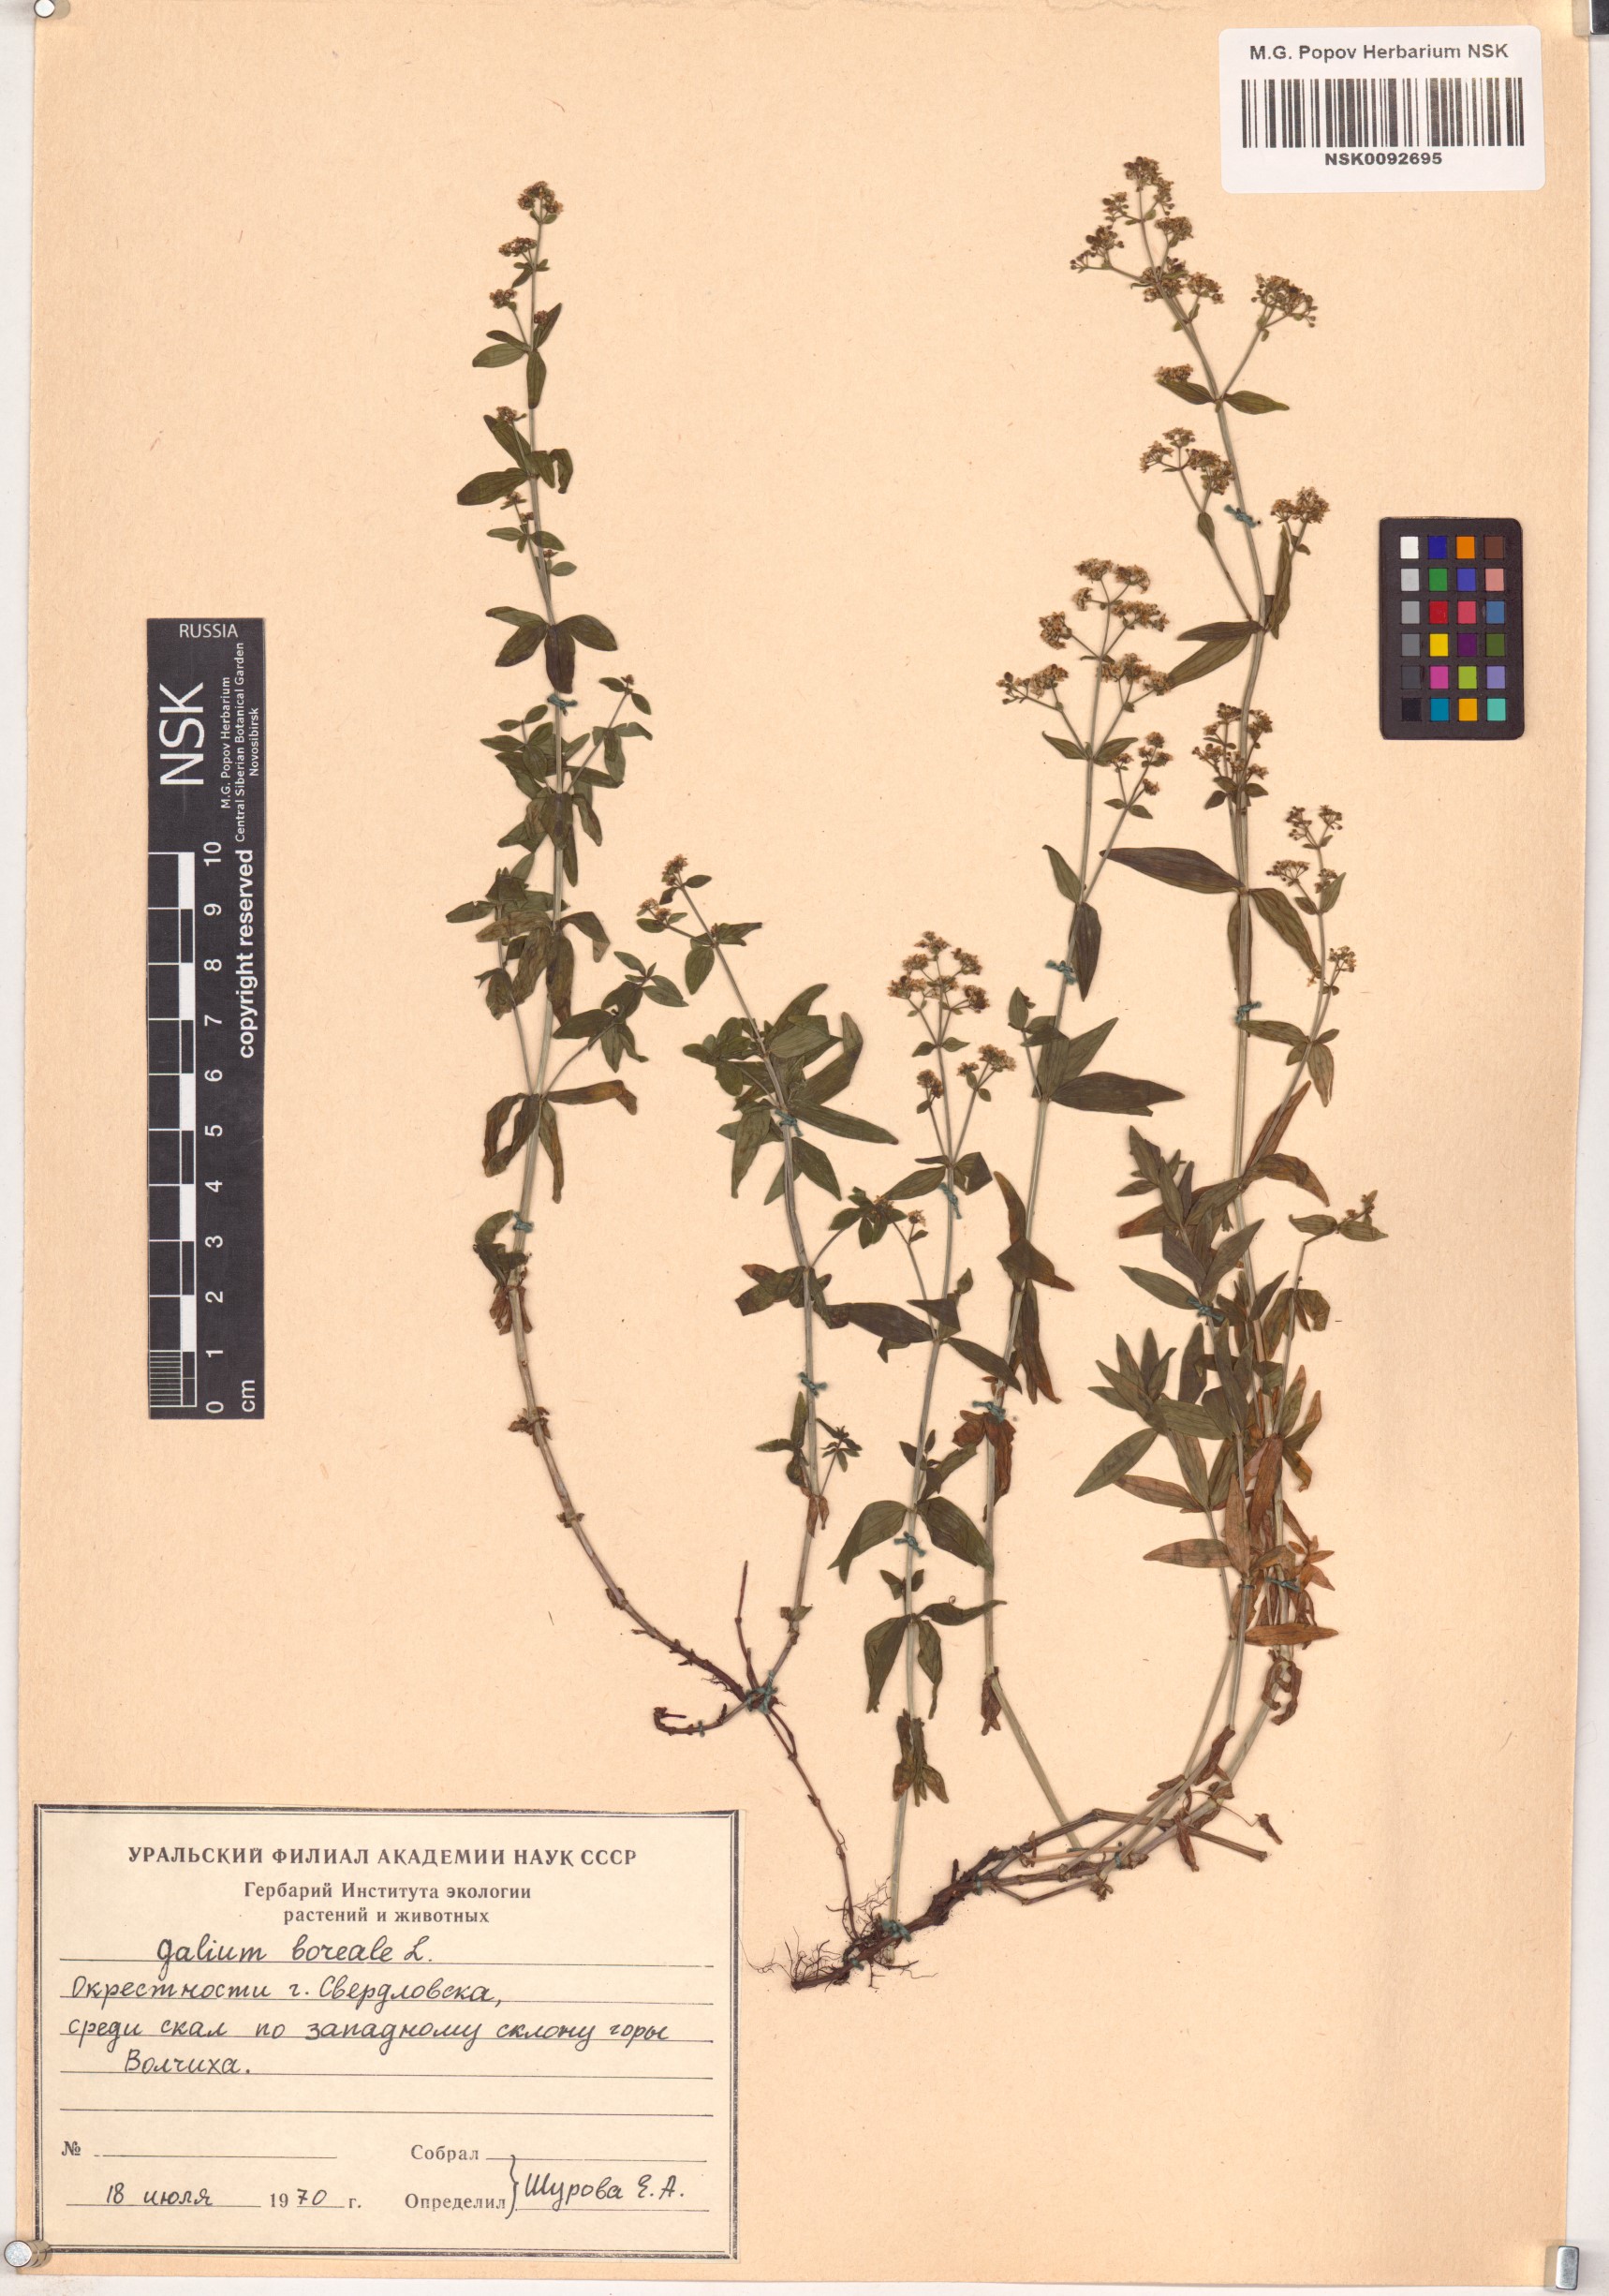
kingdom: Plantae
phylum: Tracheophyta
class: Magnoliopsida
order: Gentianales
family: Rubiaceae
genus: Galium
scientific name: Galium boreale
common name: Northern bedstraw
